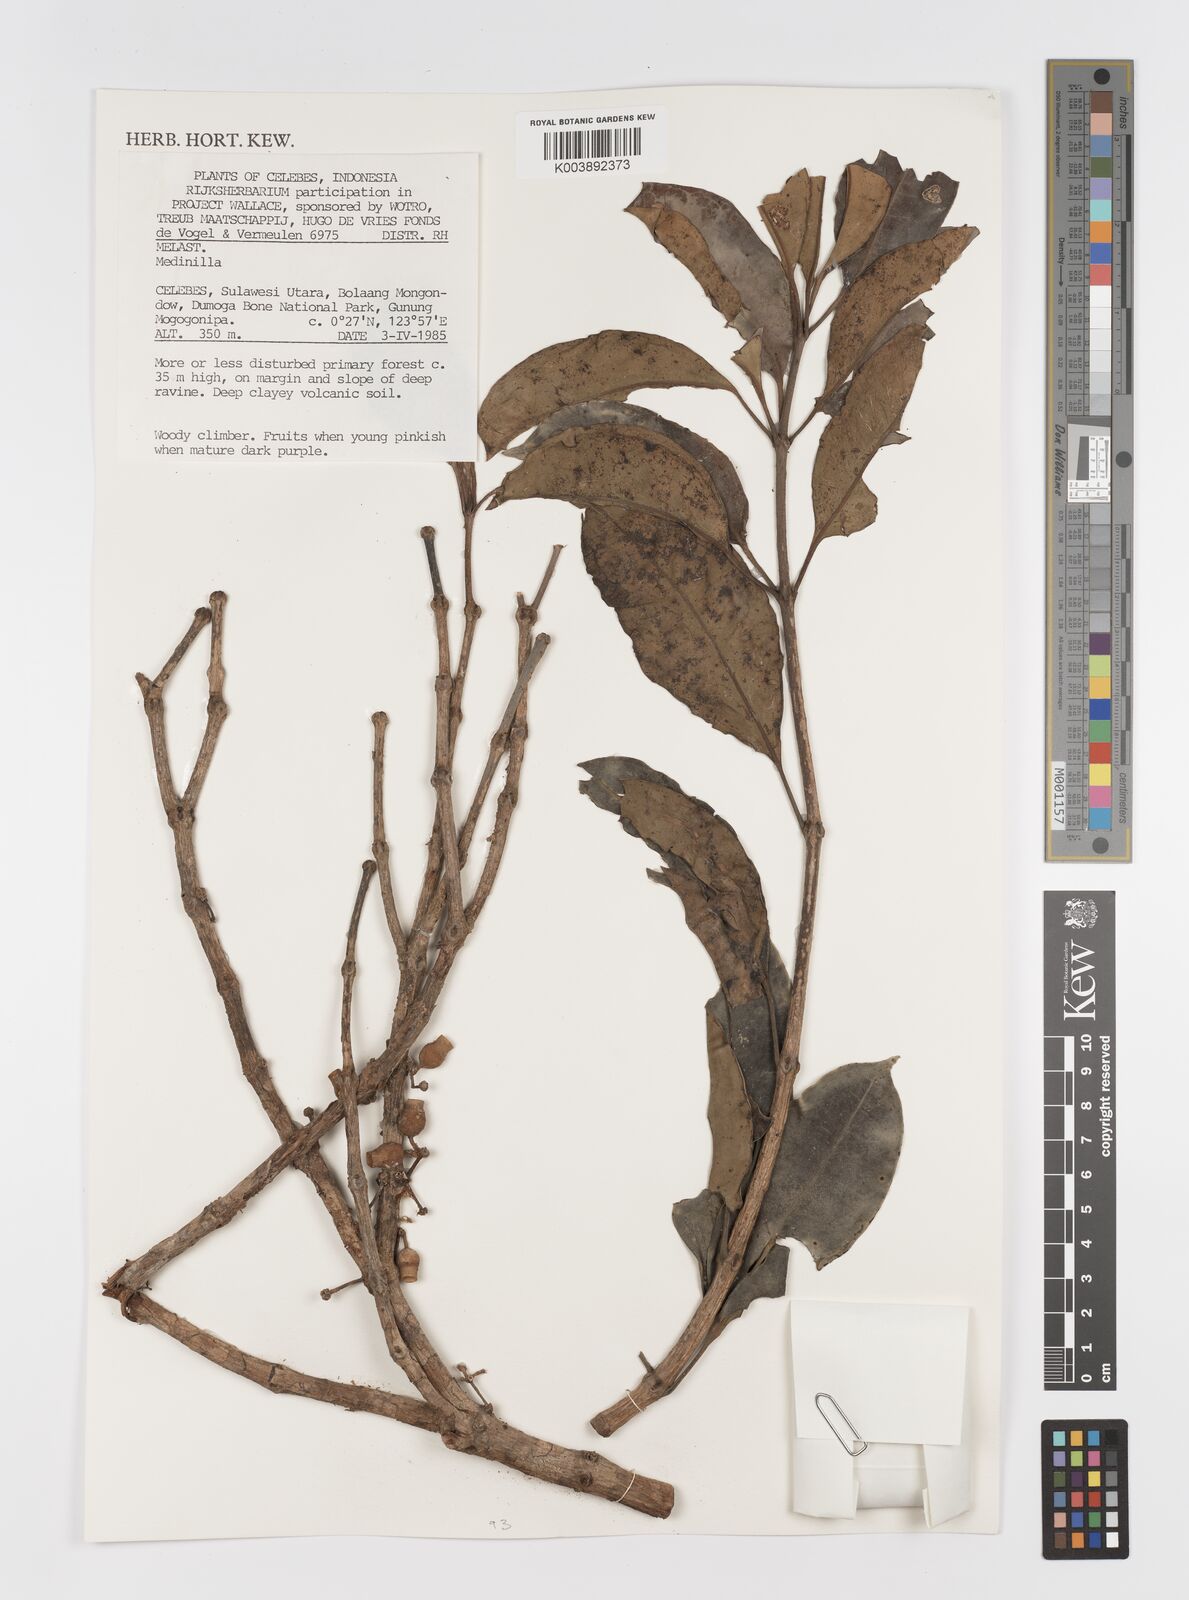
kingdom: Plantae
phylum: Tracheophyta
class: Magnoliopsida
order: Myrtales
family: Melastomataceae
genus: Medinilla
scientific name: Medinilla
